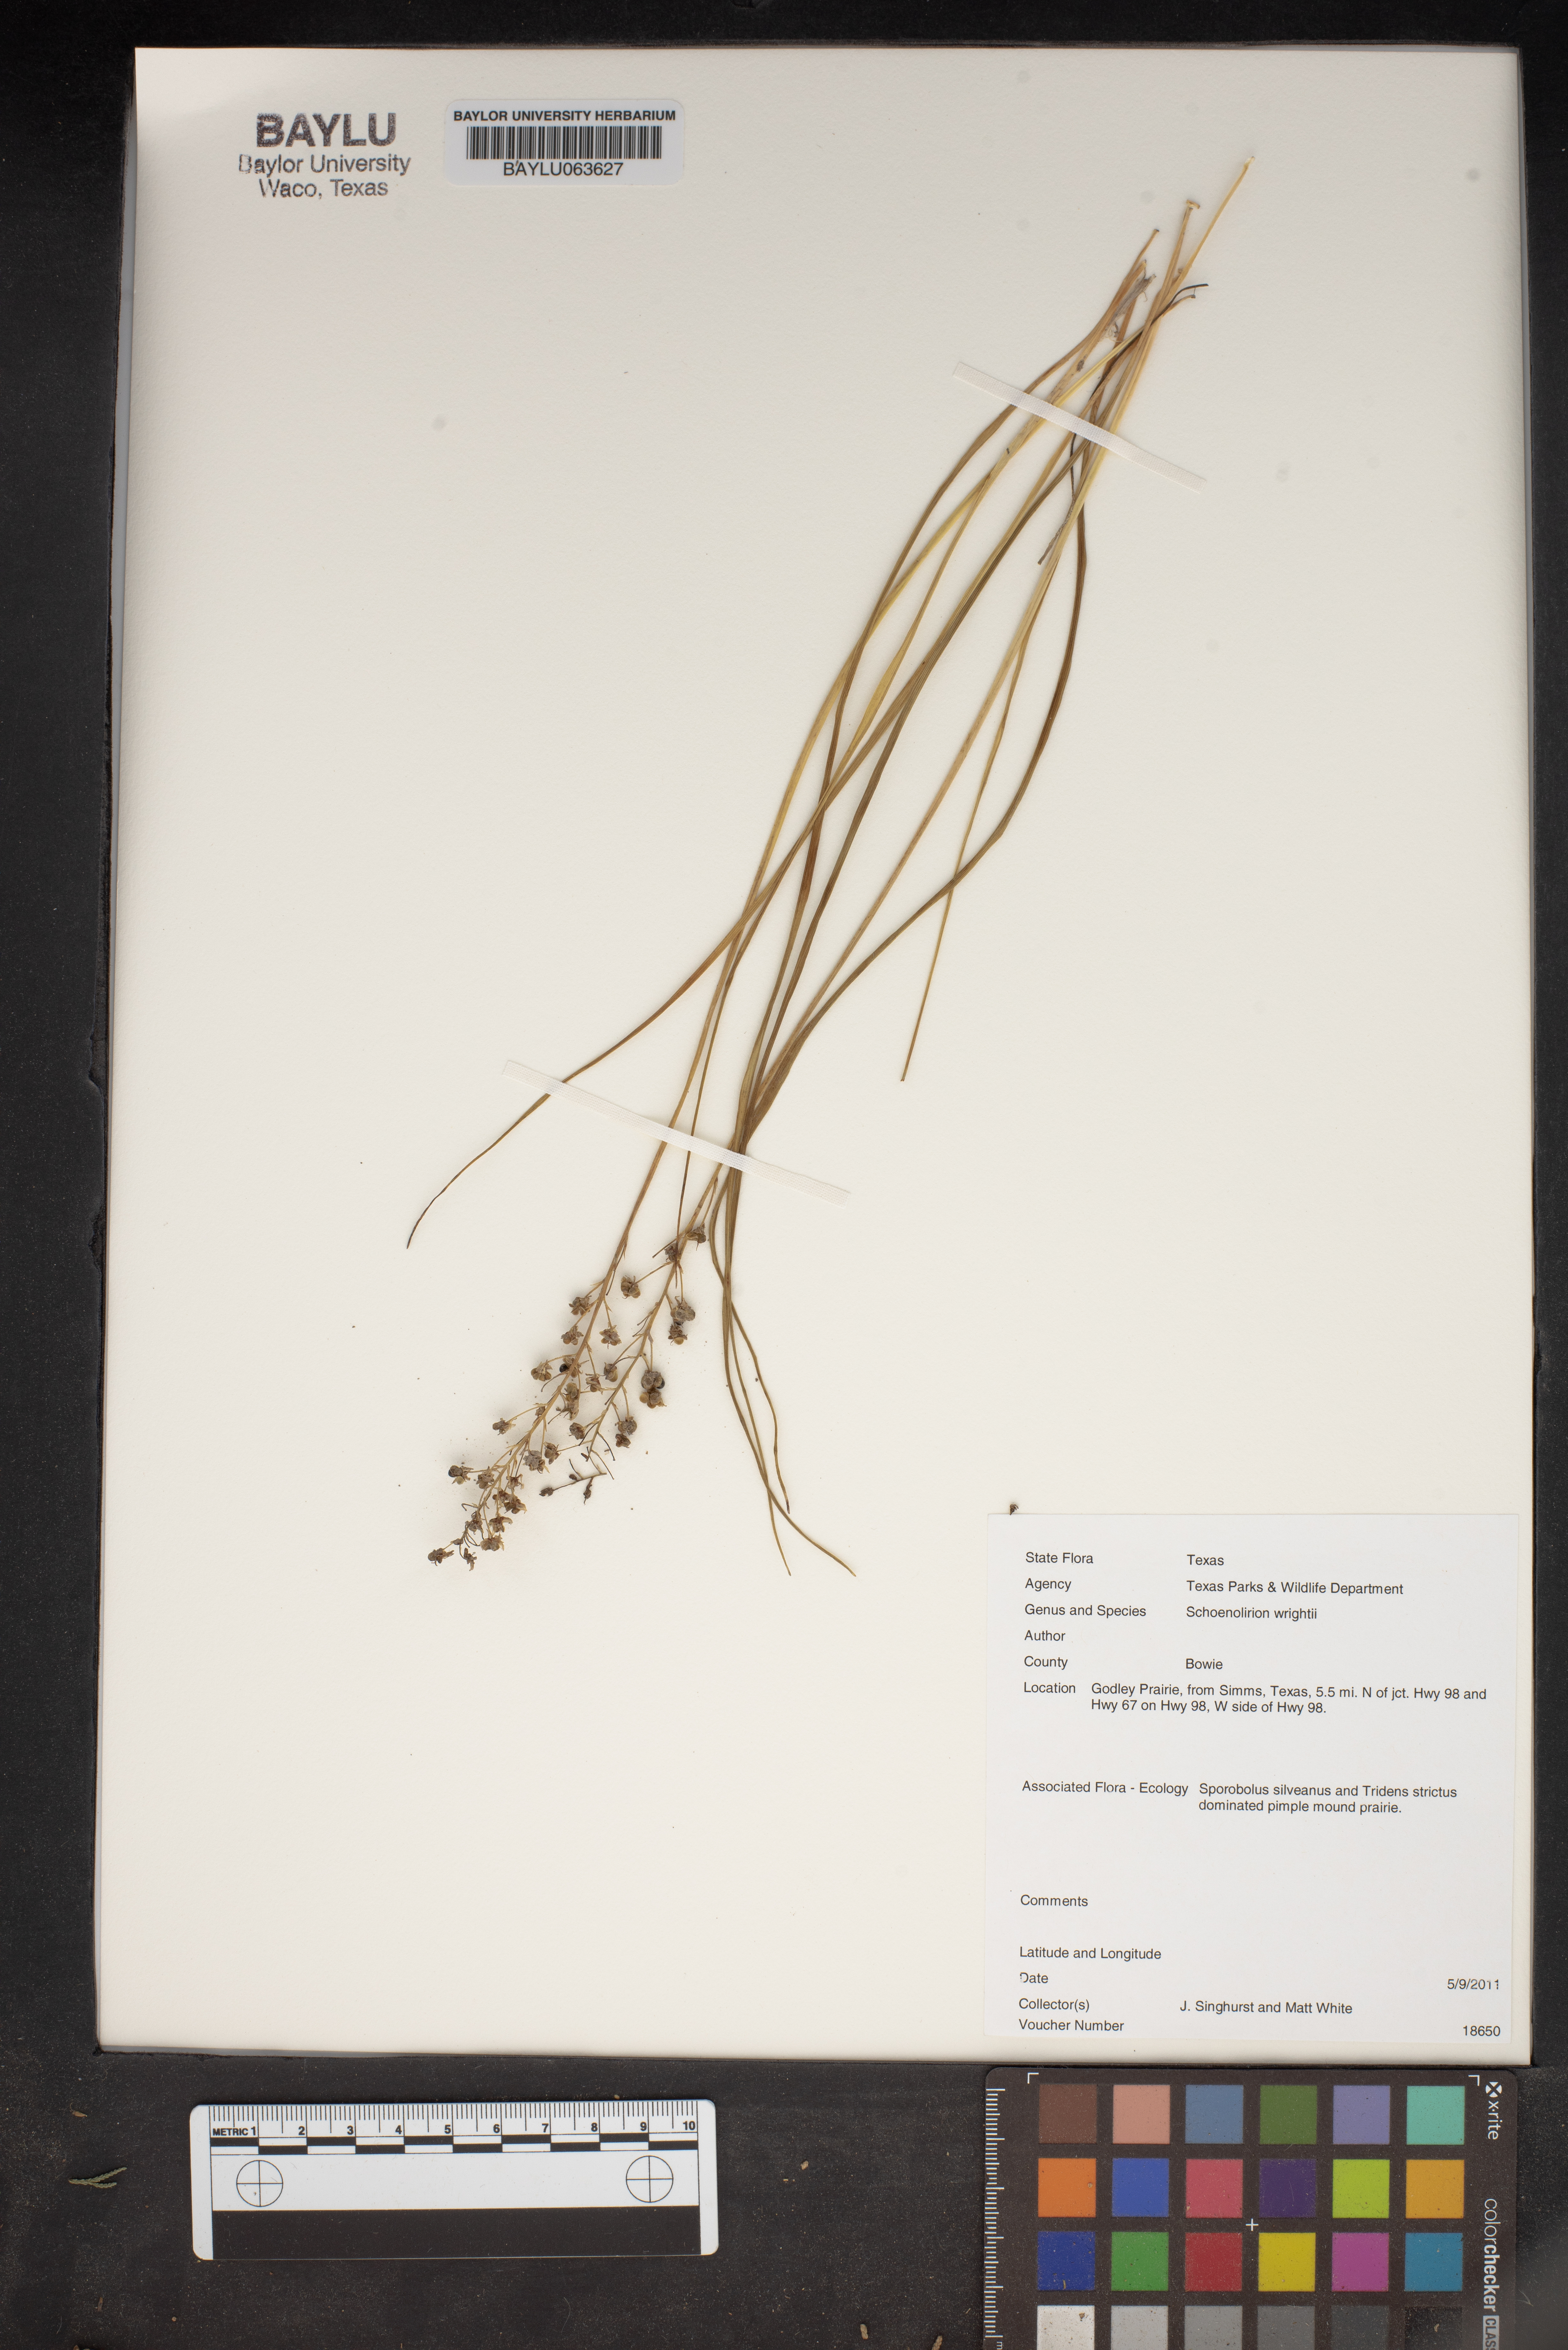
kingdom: Plantae
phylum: Tracheophyta
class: Liliopsida
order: Asparagales
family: Asparagaceae
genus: Schoenolirion
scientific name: Schoenolirion wrightii
